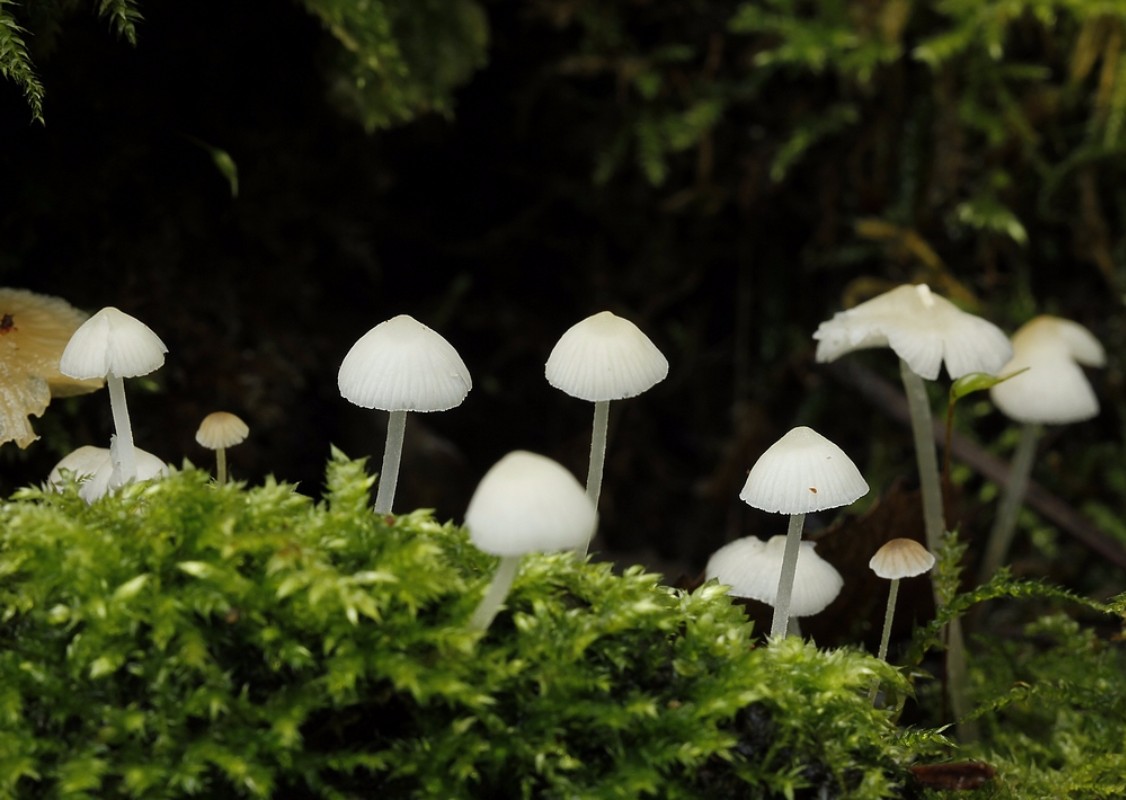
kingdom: Fungi
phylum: Basidiomycota
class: Agaricomycetes
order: Agaricales
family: Porotheleaceae
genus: Phloeomana
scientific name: Phloeomana minutula
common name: bleg huesvamp
